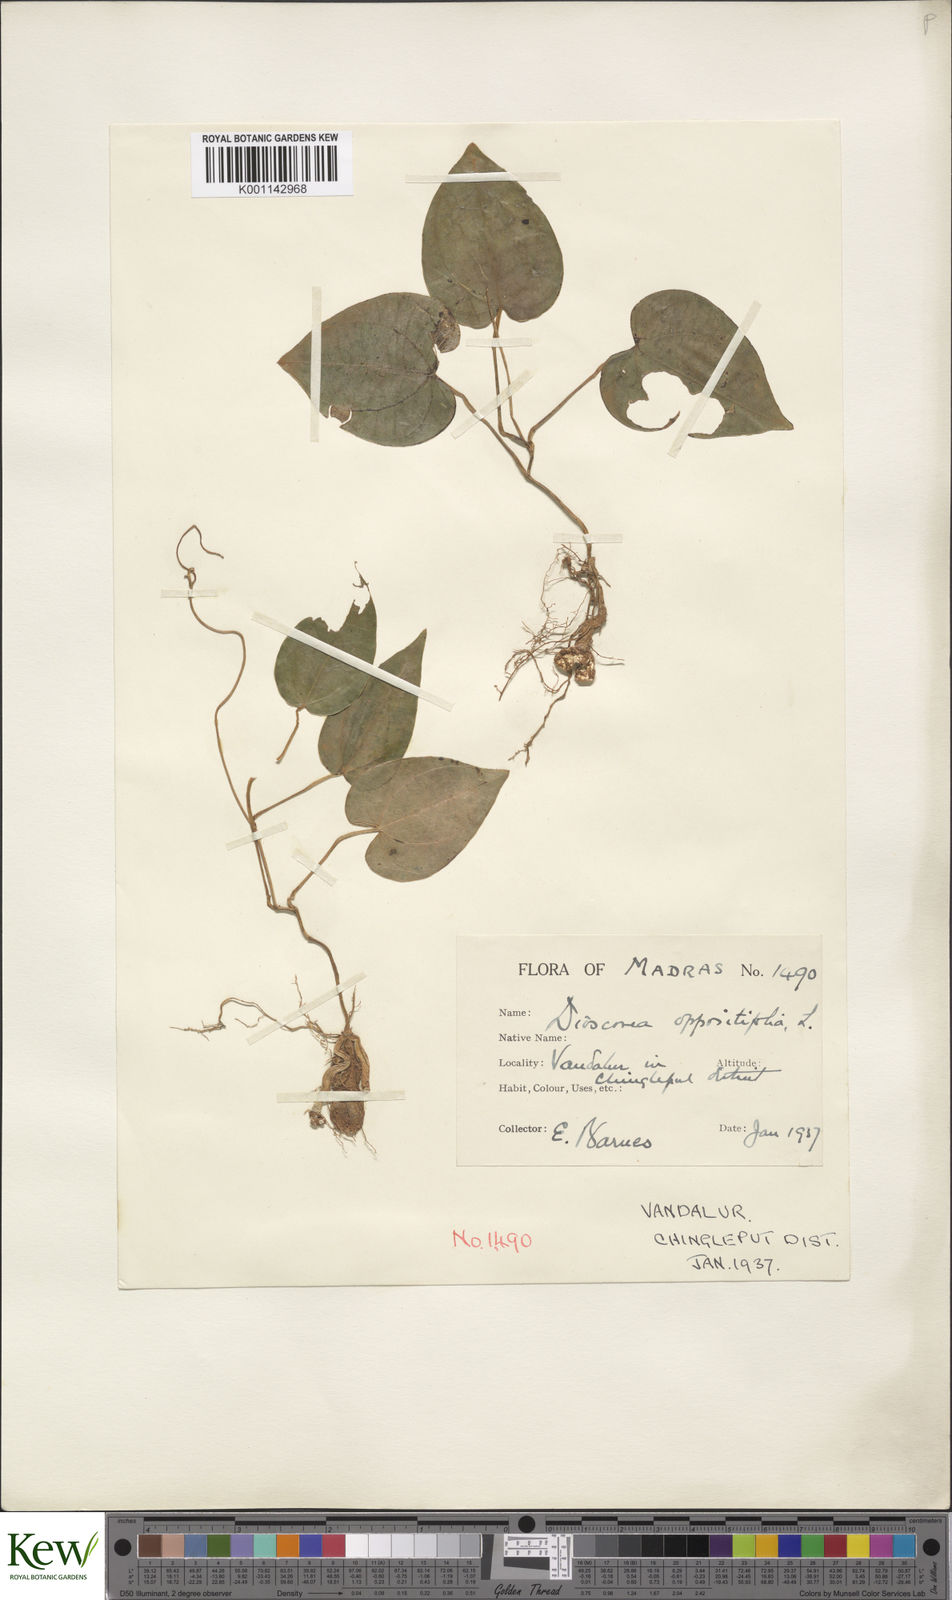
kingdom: Plantae
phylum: Tracheophyta
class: Liliopsida
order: Dioscoreales
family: Dioscoreaceae
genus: Dioscorea
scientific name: Dioscorea oppositifolia
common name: Chinese yam
